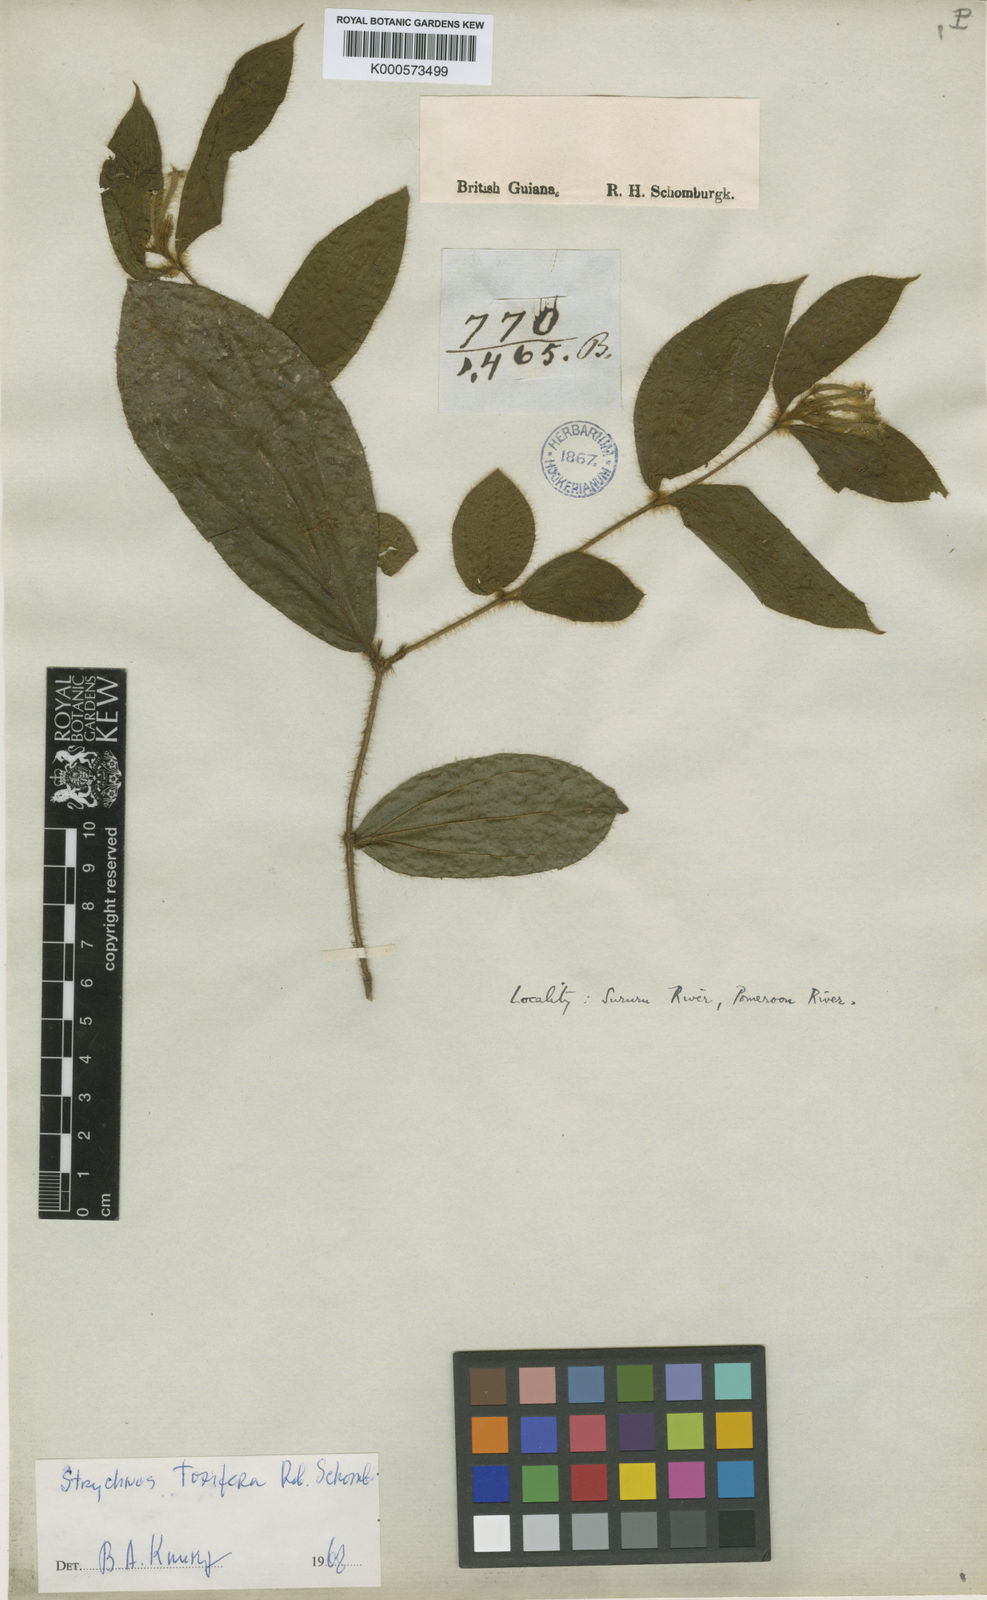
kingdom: Plantae
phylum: Tracheophyta
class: Magnoliopsida
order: Gentianales
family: Loganiaceae
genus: Strychnos
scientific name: Strychnos
